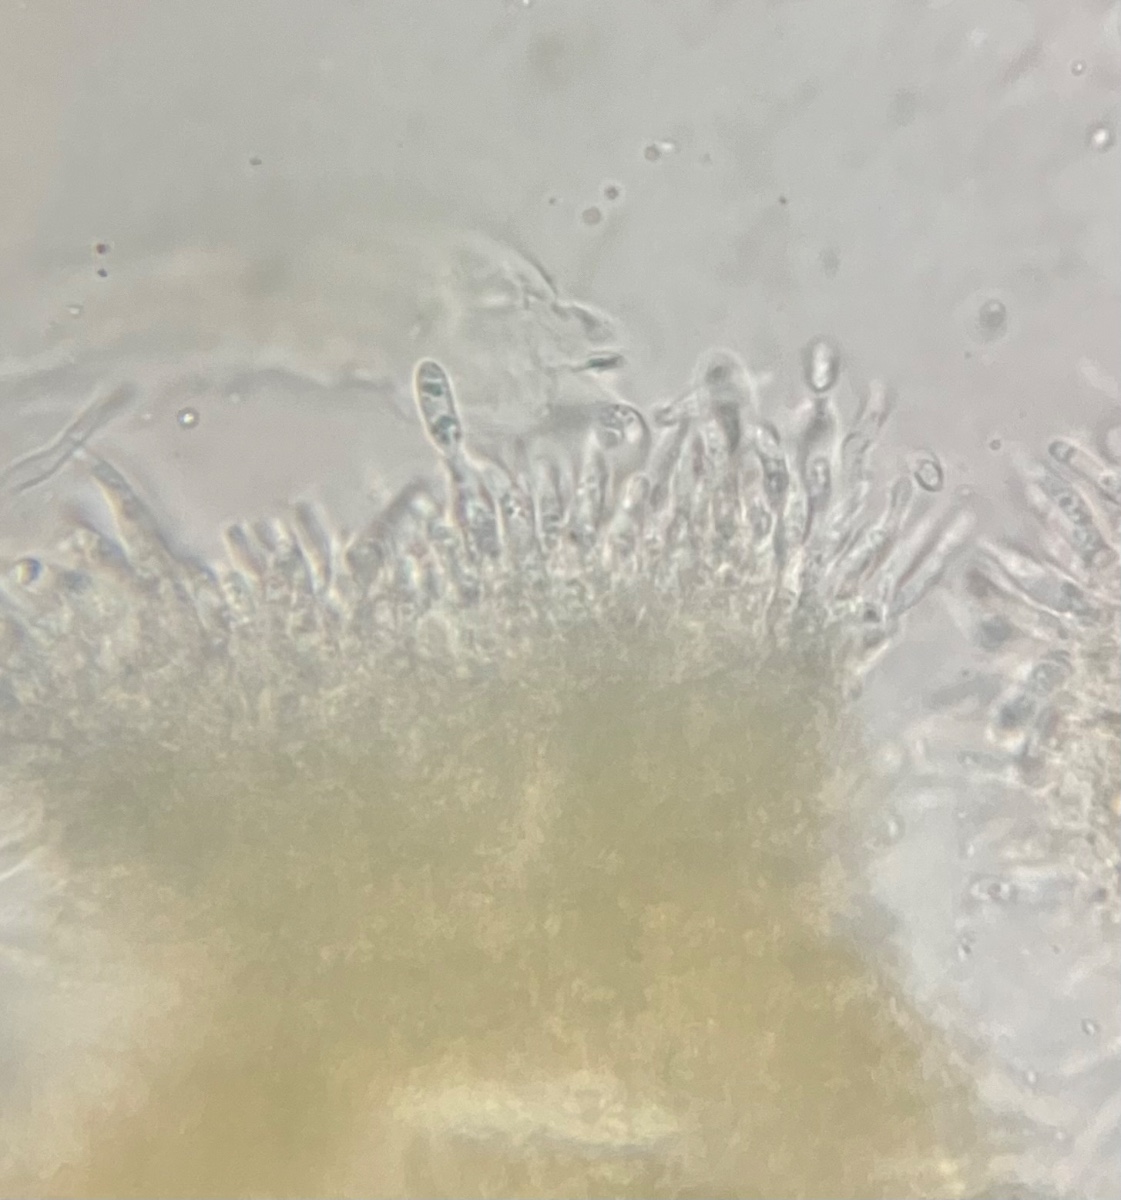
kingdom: Fungi
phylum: Ascomycota
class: Sordariomycetes
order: Diaporthales
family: Diaporthaceae
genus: Diaporthe
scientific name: Diaporthe samaricola
